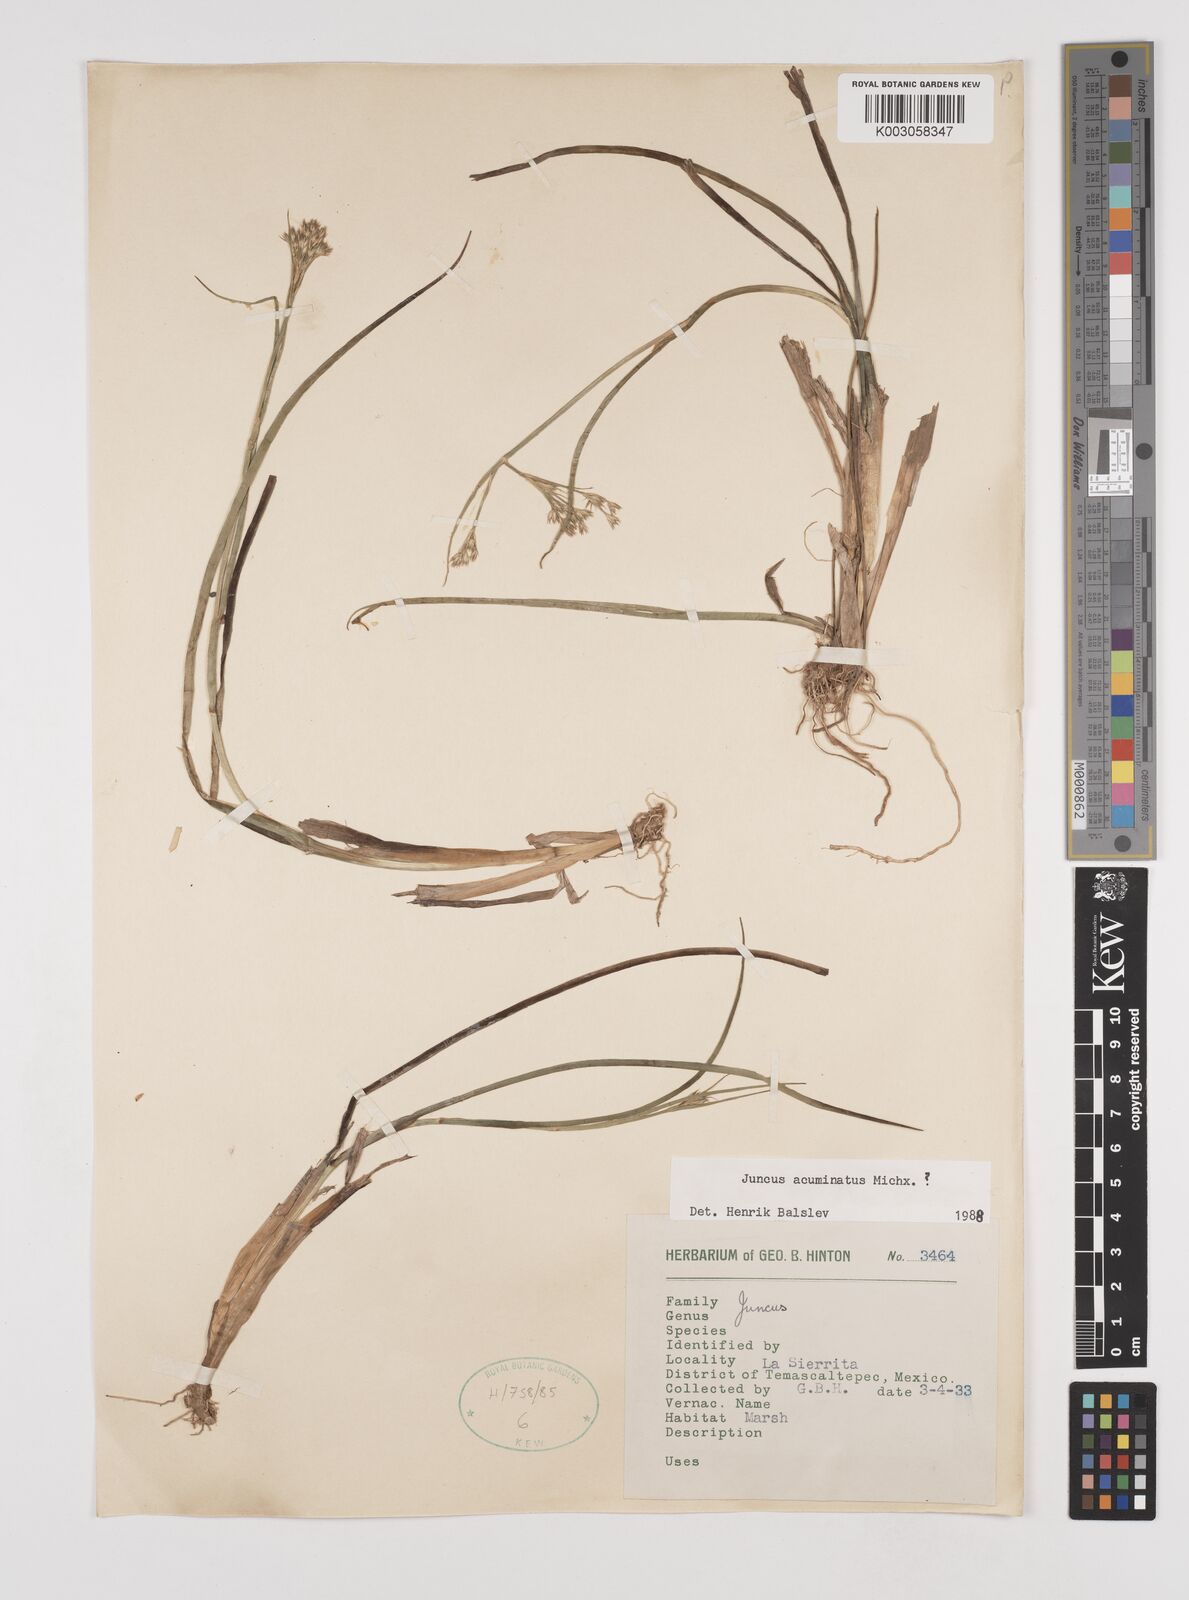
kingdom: Plantae
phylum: Tracheophyta
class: Liliopsida
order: Poales
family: Juncaceae
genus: Juncus
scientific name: Juncus acuminatus
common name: Knotty-leaved rush
